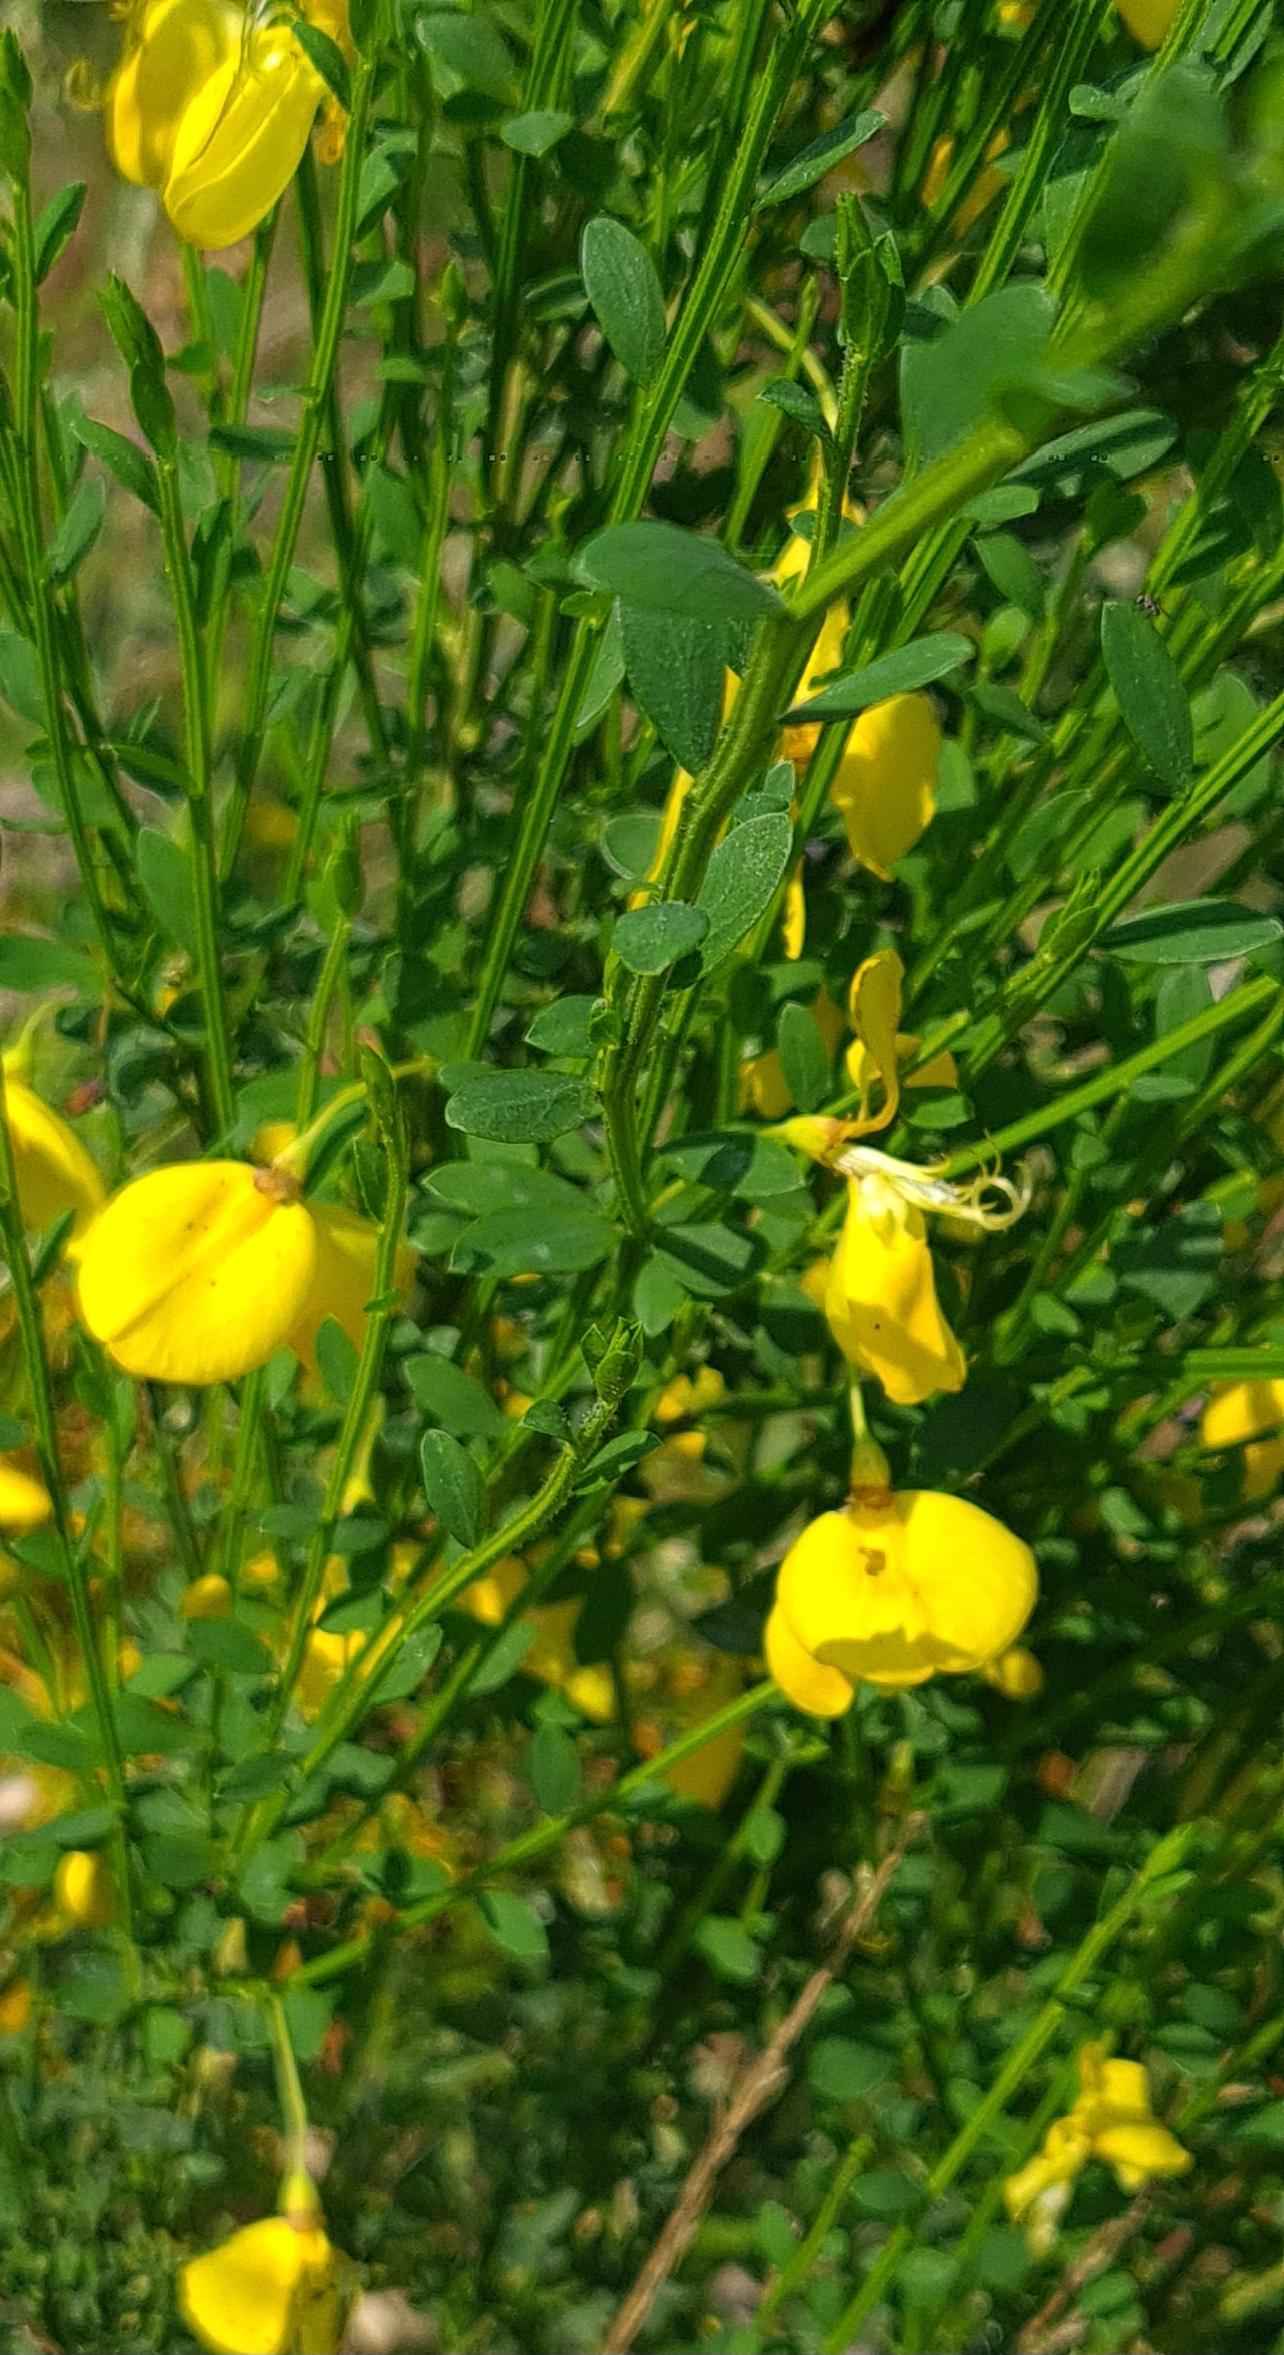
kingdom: Plantae
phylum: Tracheophyta
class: Magnoliopsida
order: Fabales
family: Fabaceae
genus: Cytisus
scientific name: Cytisus scoparius
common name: Almindelig gyvel
